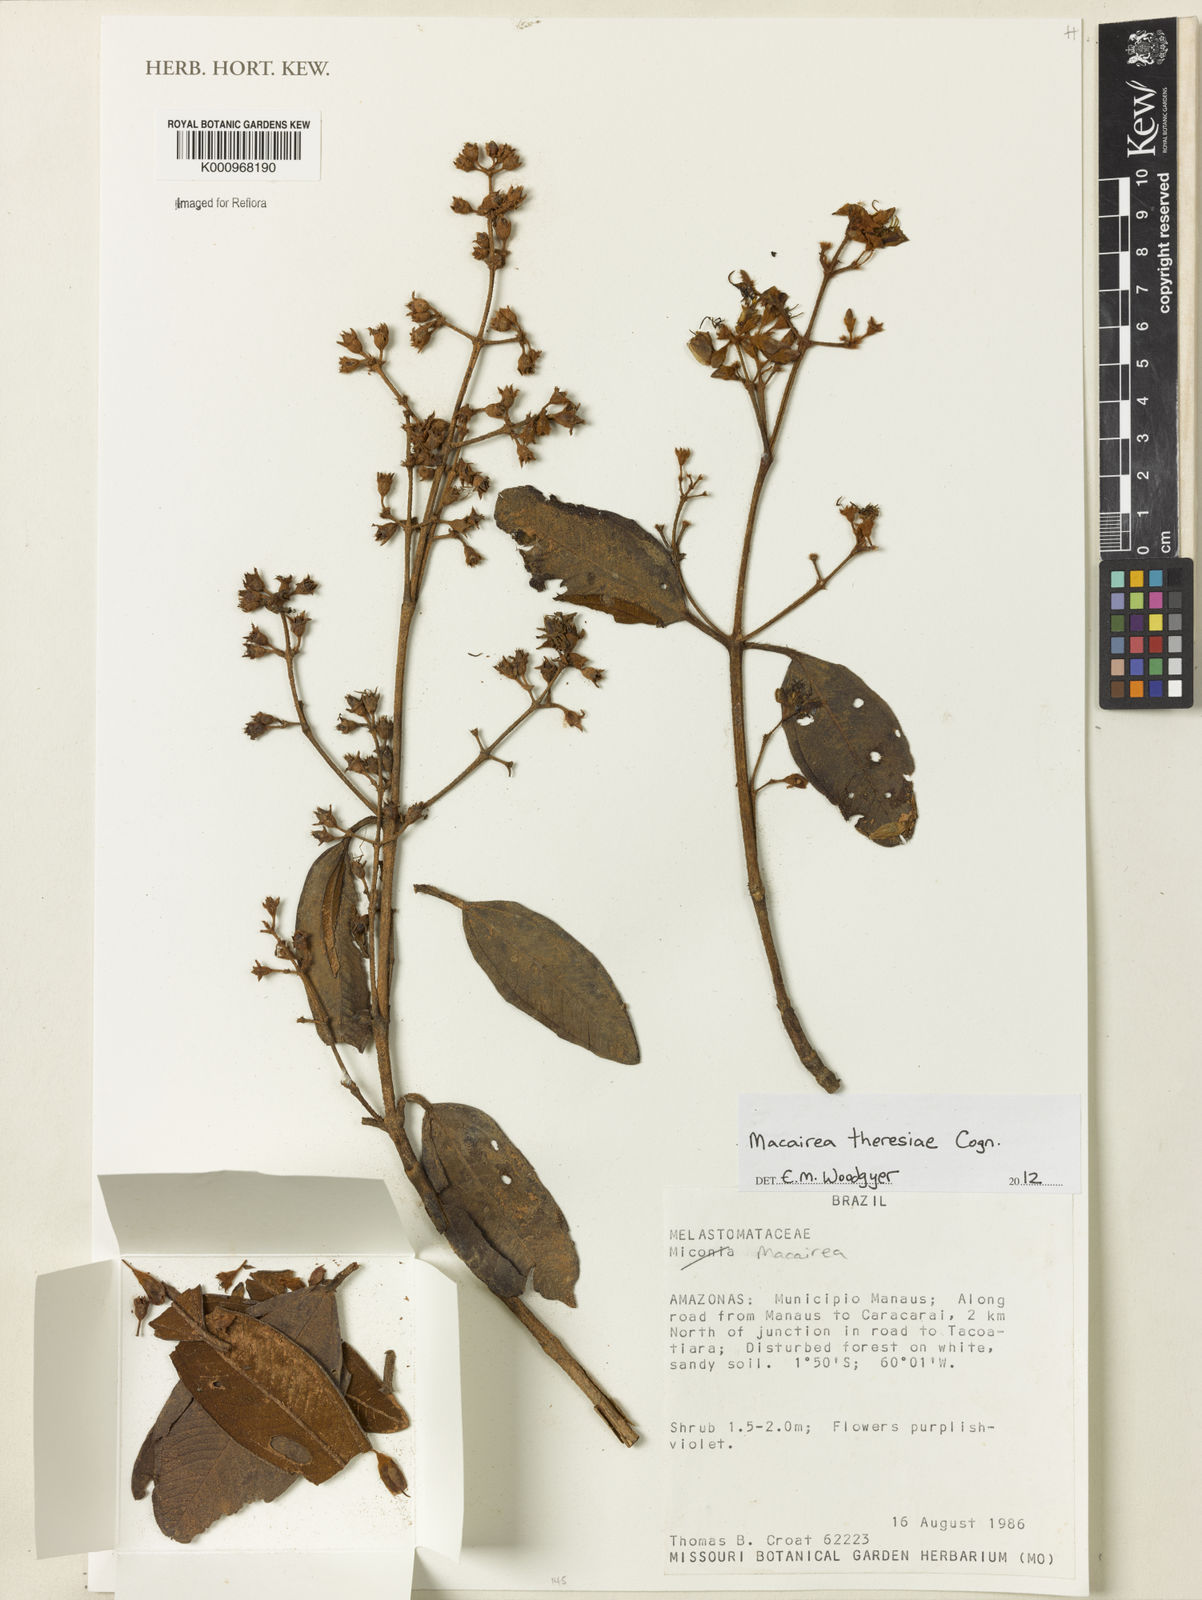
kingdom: Plantae
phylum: Tracheophyta
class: Magnoliopsida
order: Myrtales
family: Melastomataceae
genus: Macairea
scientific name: Macairea theresiae
